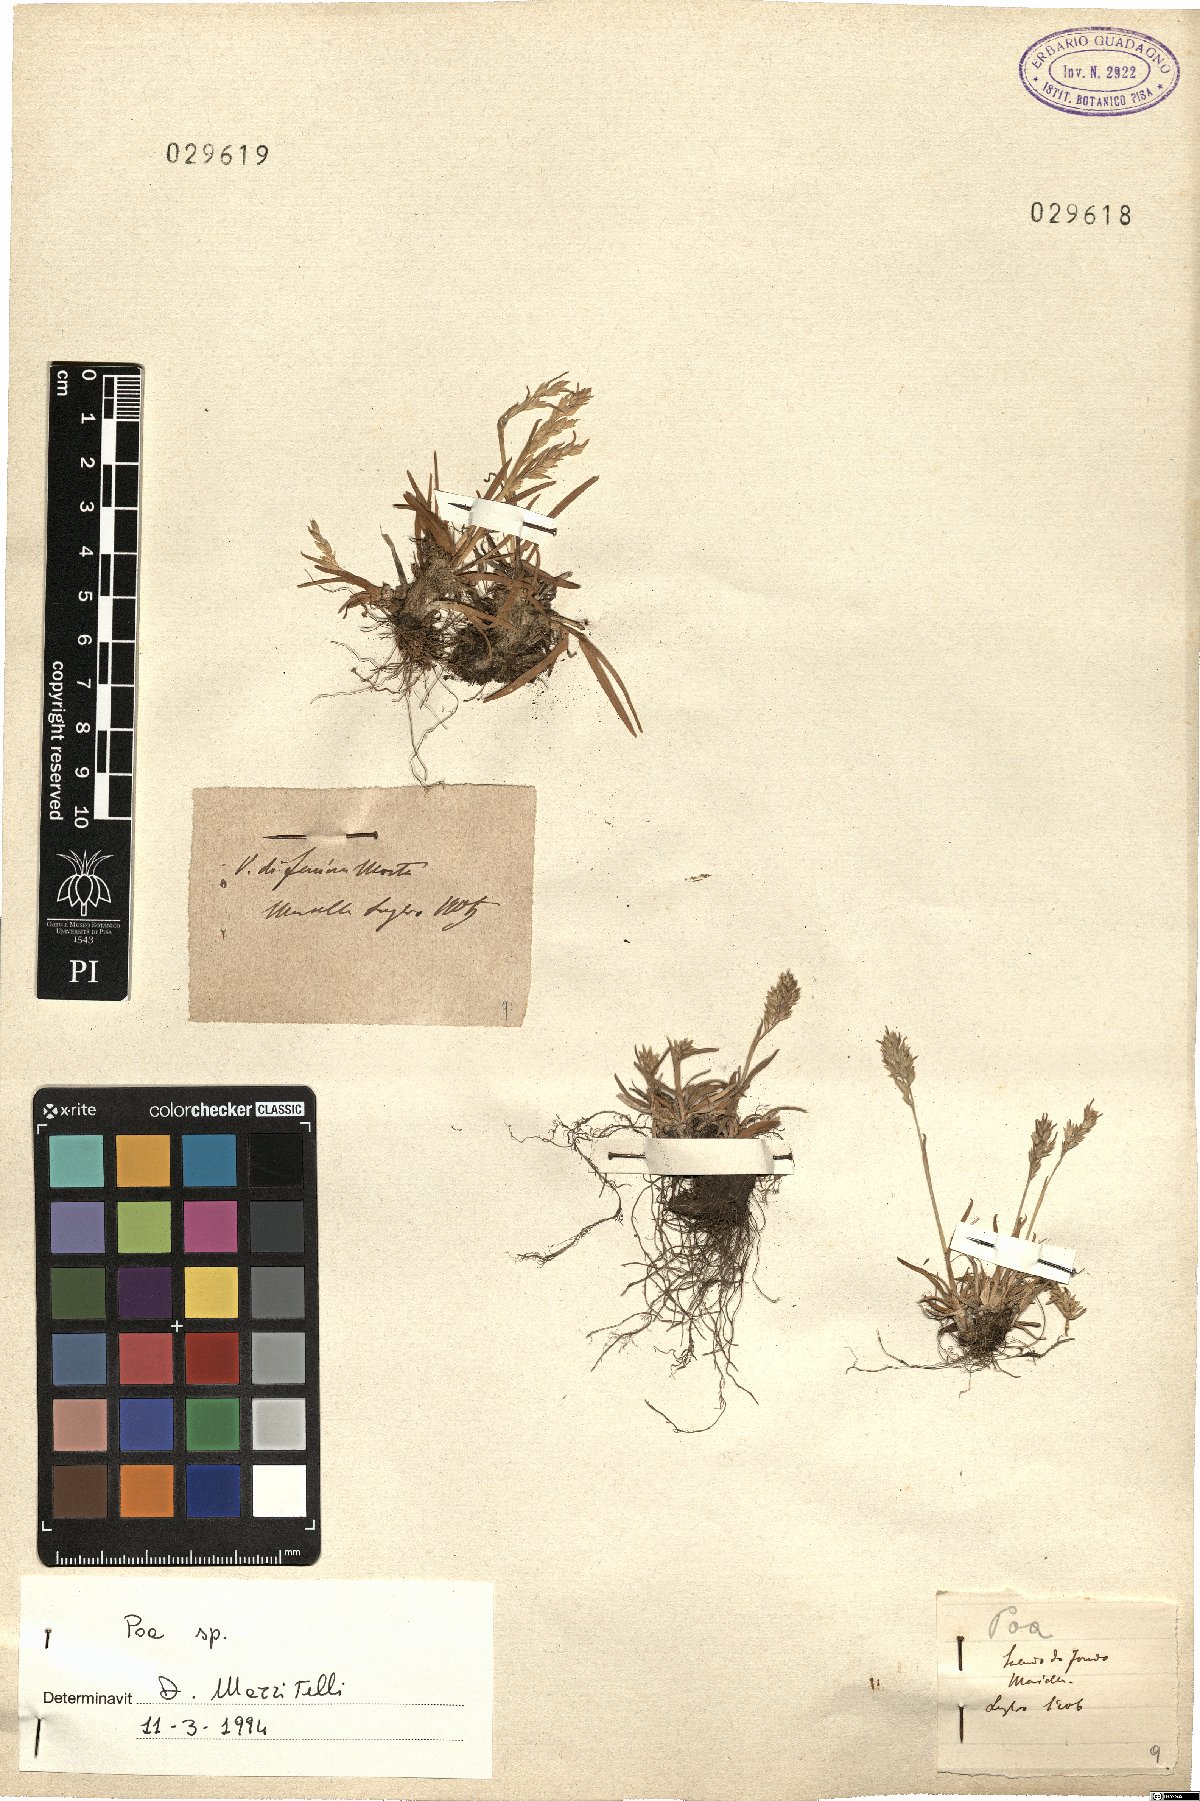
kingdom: Plantae
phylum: Tracheophyta
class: Liliopsida
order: Poales
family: Poaceae
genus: Poa
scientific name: Poa
